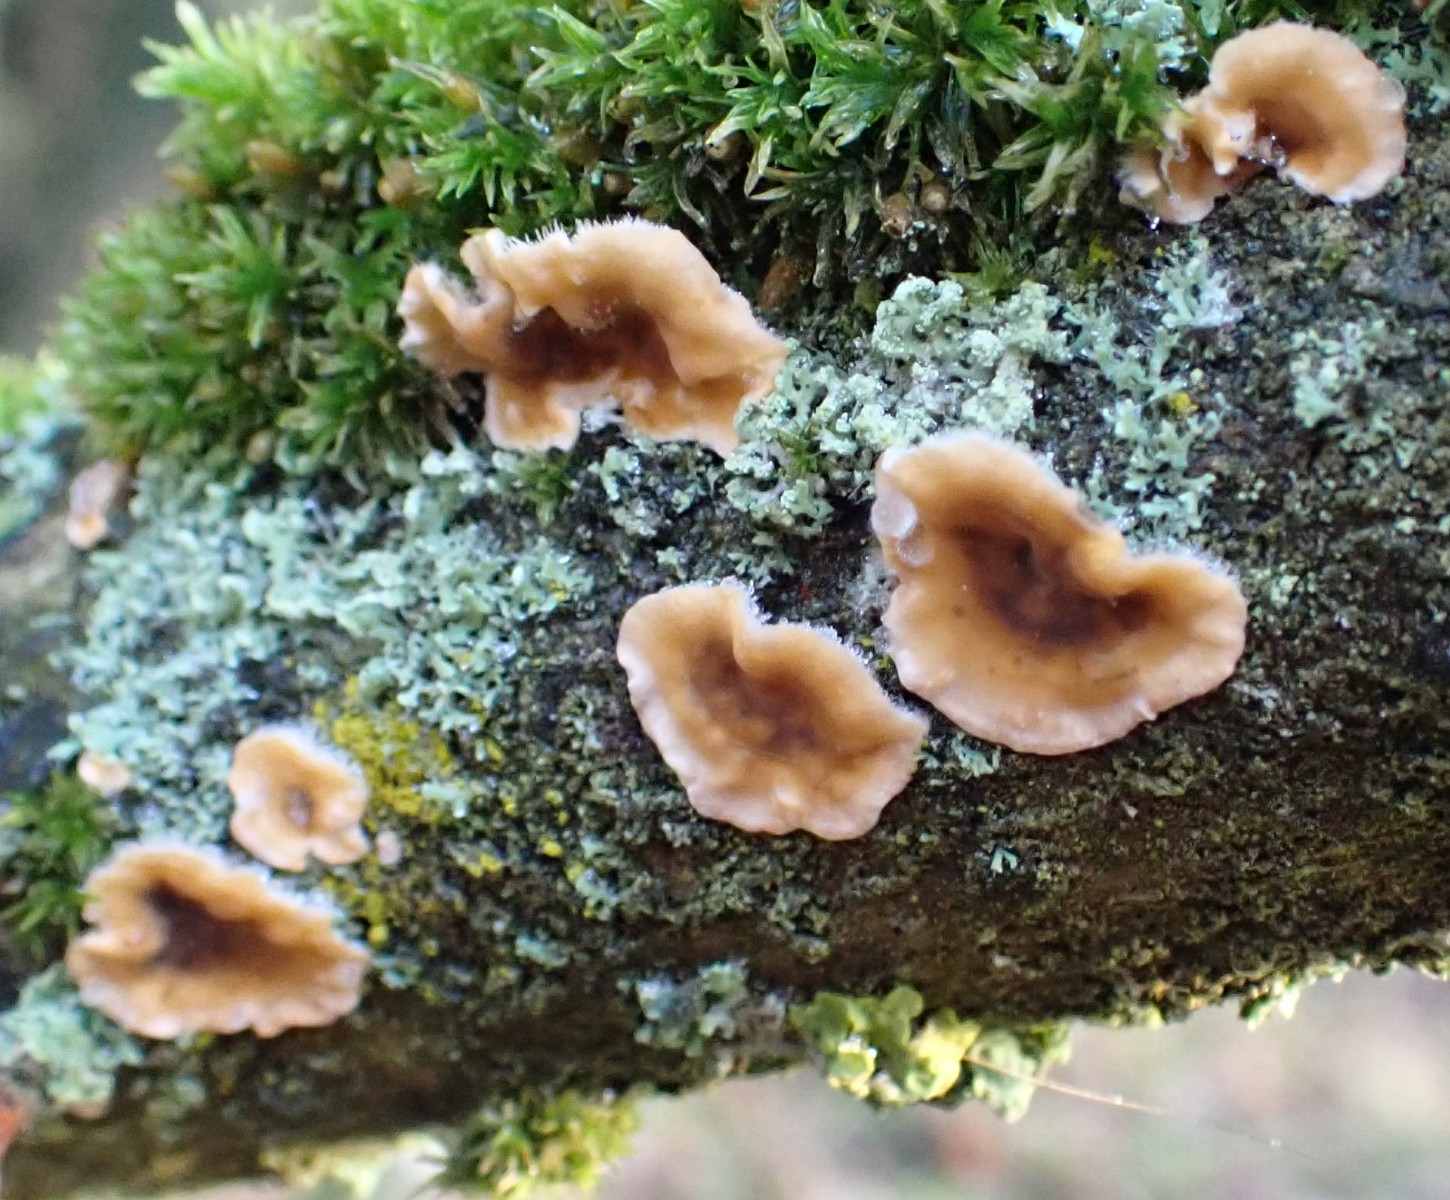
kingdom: Fungi
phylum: Basidiomycota
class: Agaricomycetes
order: Russulales
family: Stereaceae
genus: Stereum
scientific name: Stereum hirsutum
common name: håret lædersvamp
